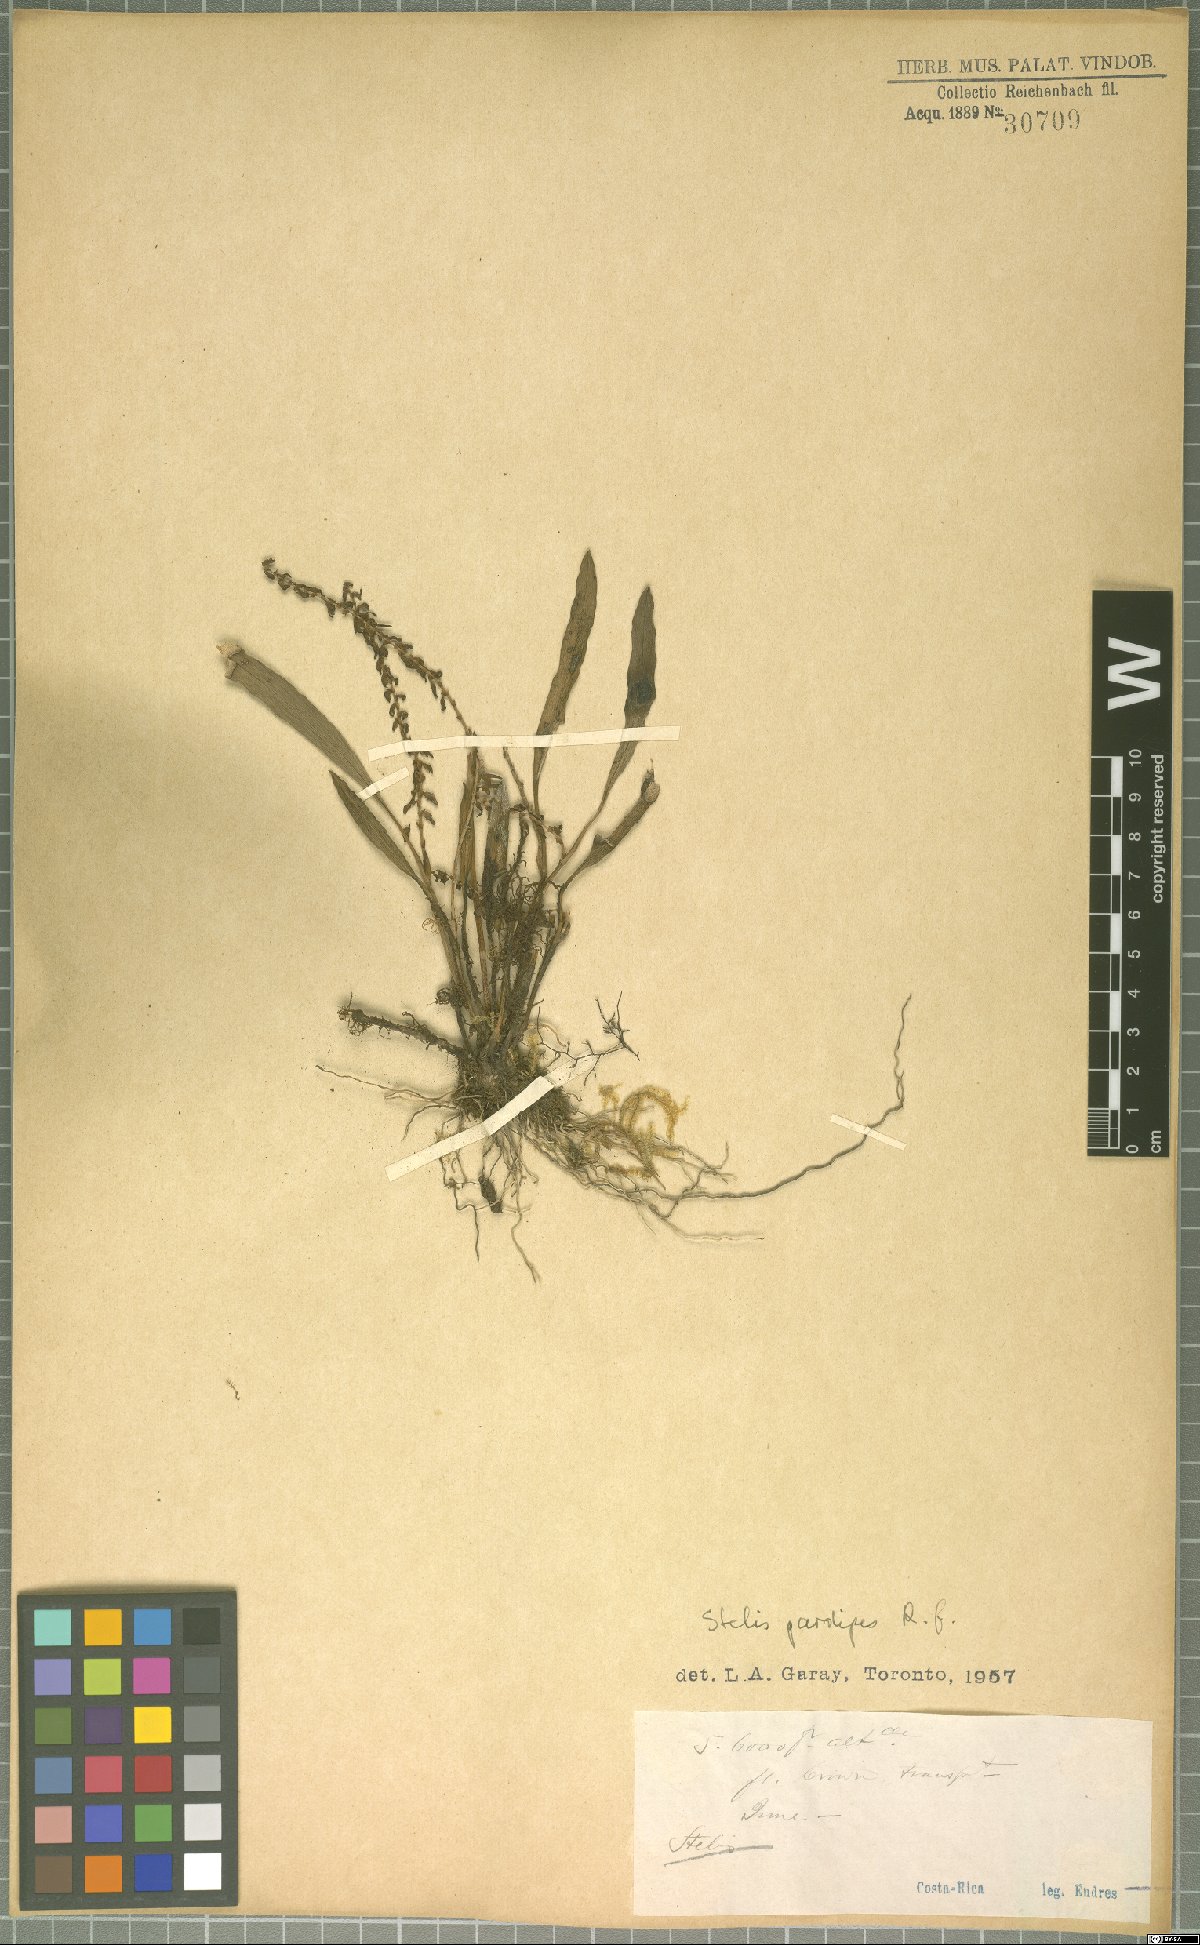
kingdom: Plantae
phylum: Tracheophyta
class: Liliopsida
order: Asparagales
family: Orchidaceae
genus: Stelis
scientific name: Stelis pardipes
